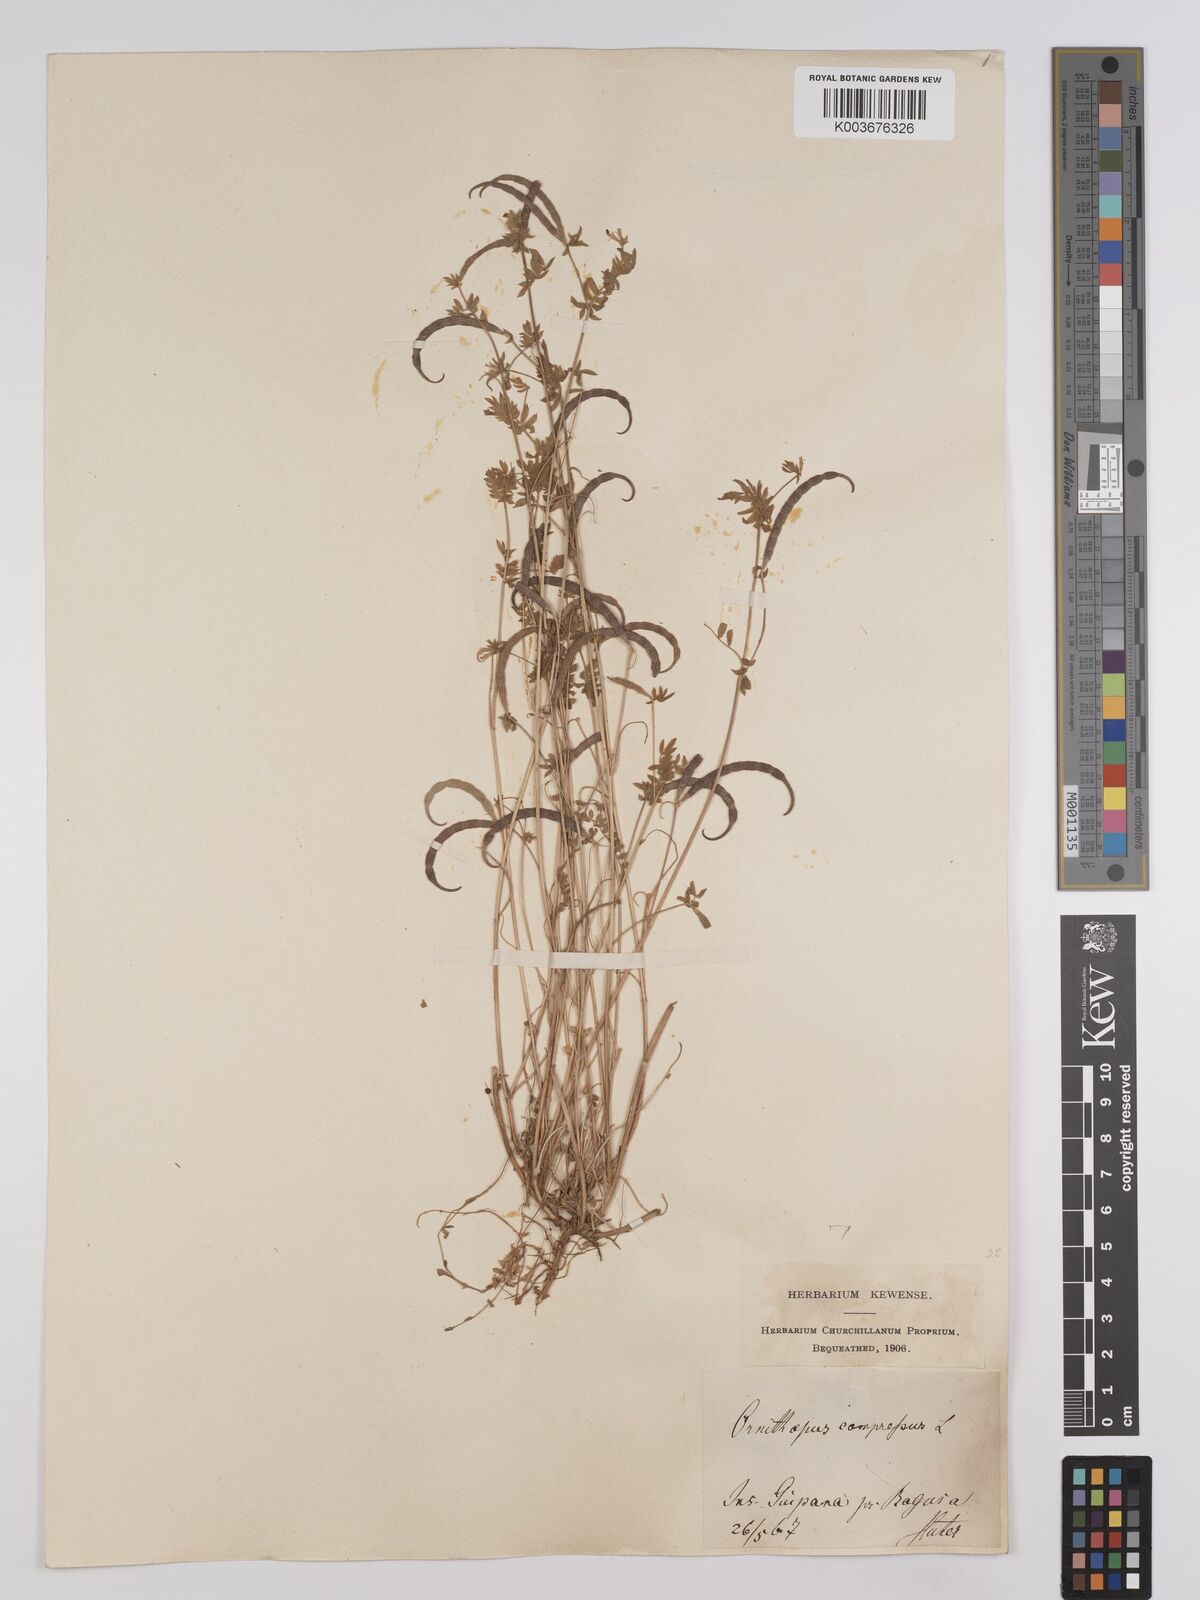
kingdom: Plantae
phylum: Tracheophyta
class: Magnoliopsida
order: Fabales
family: Fabaceae
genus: Ornithopus
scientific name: Ornithopus compressus
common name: Yellow serradella
